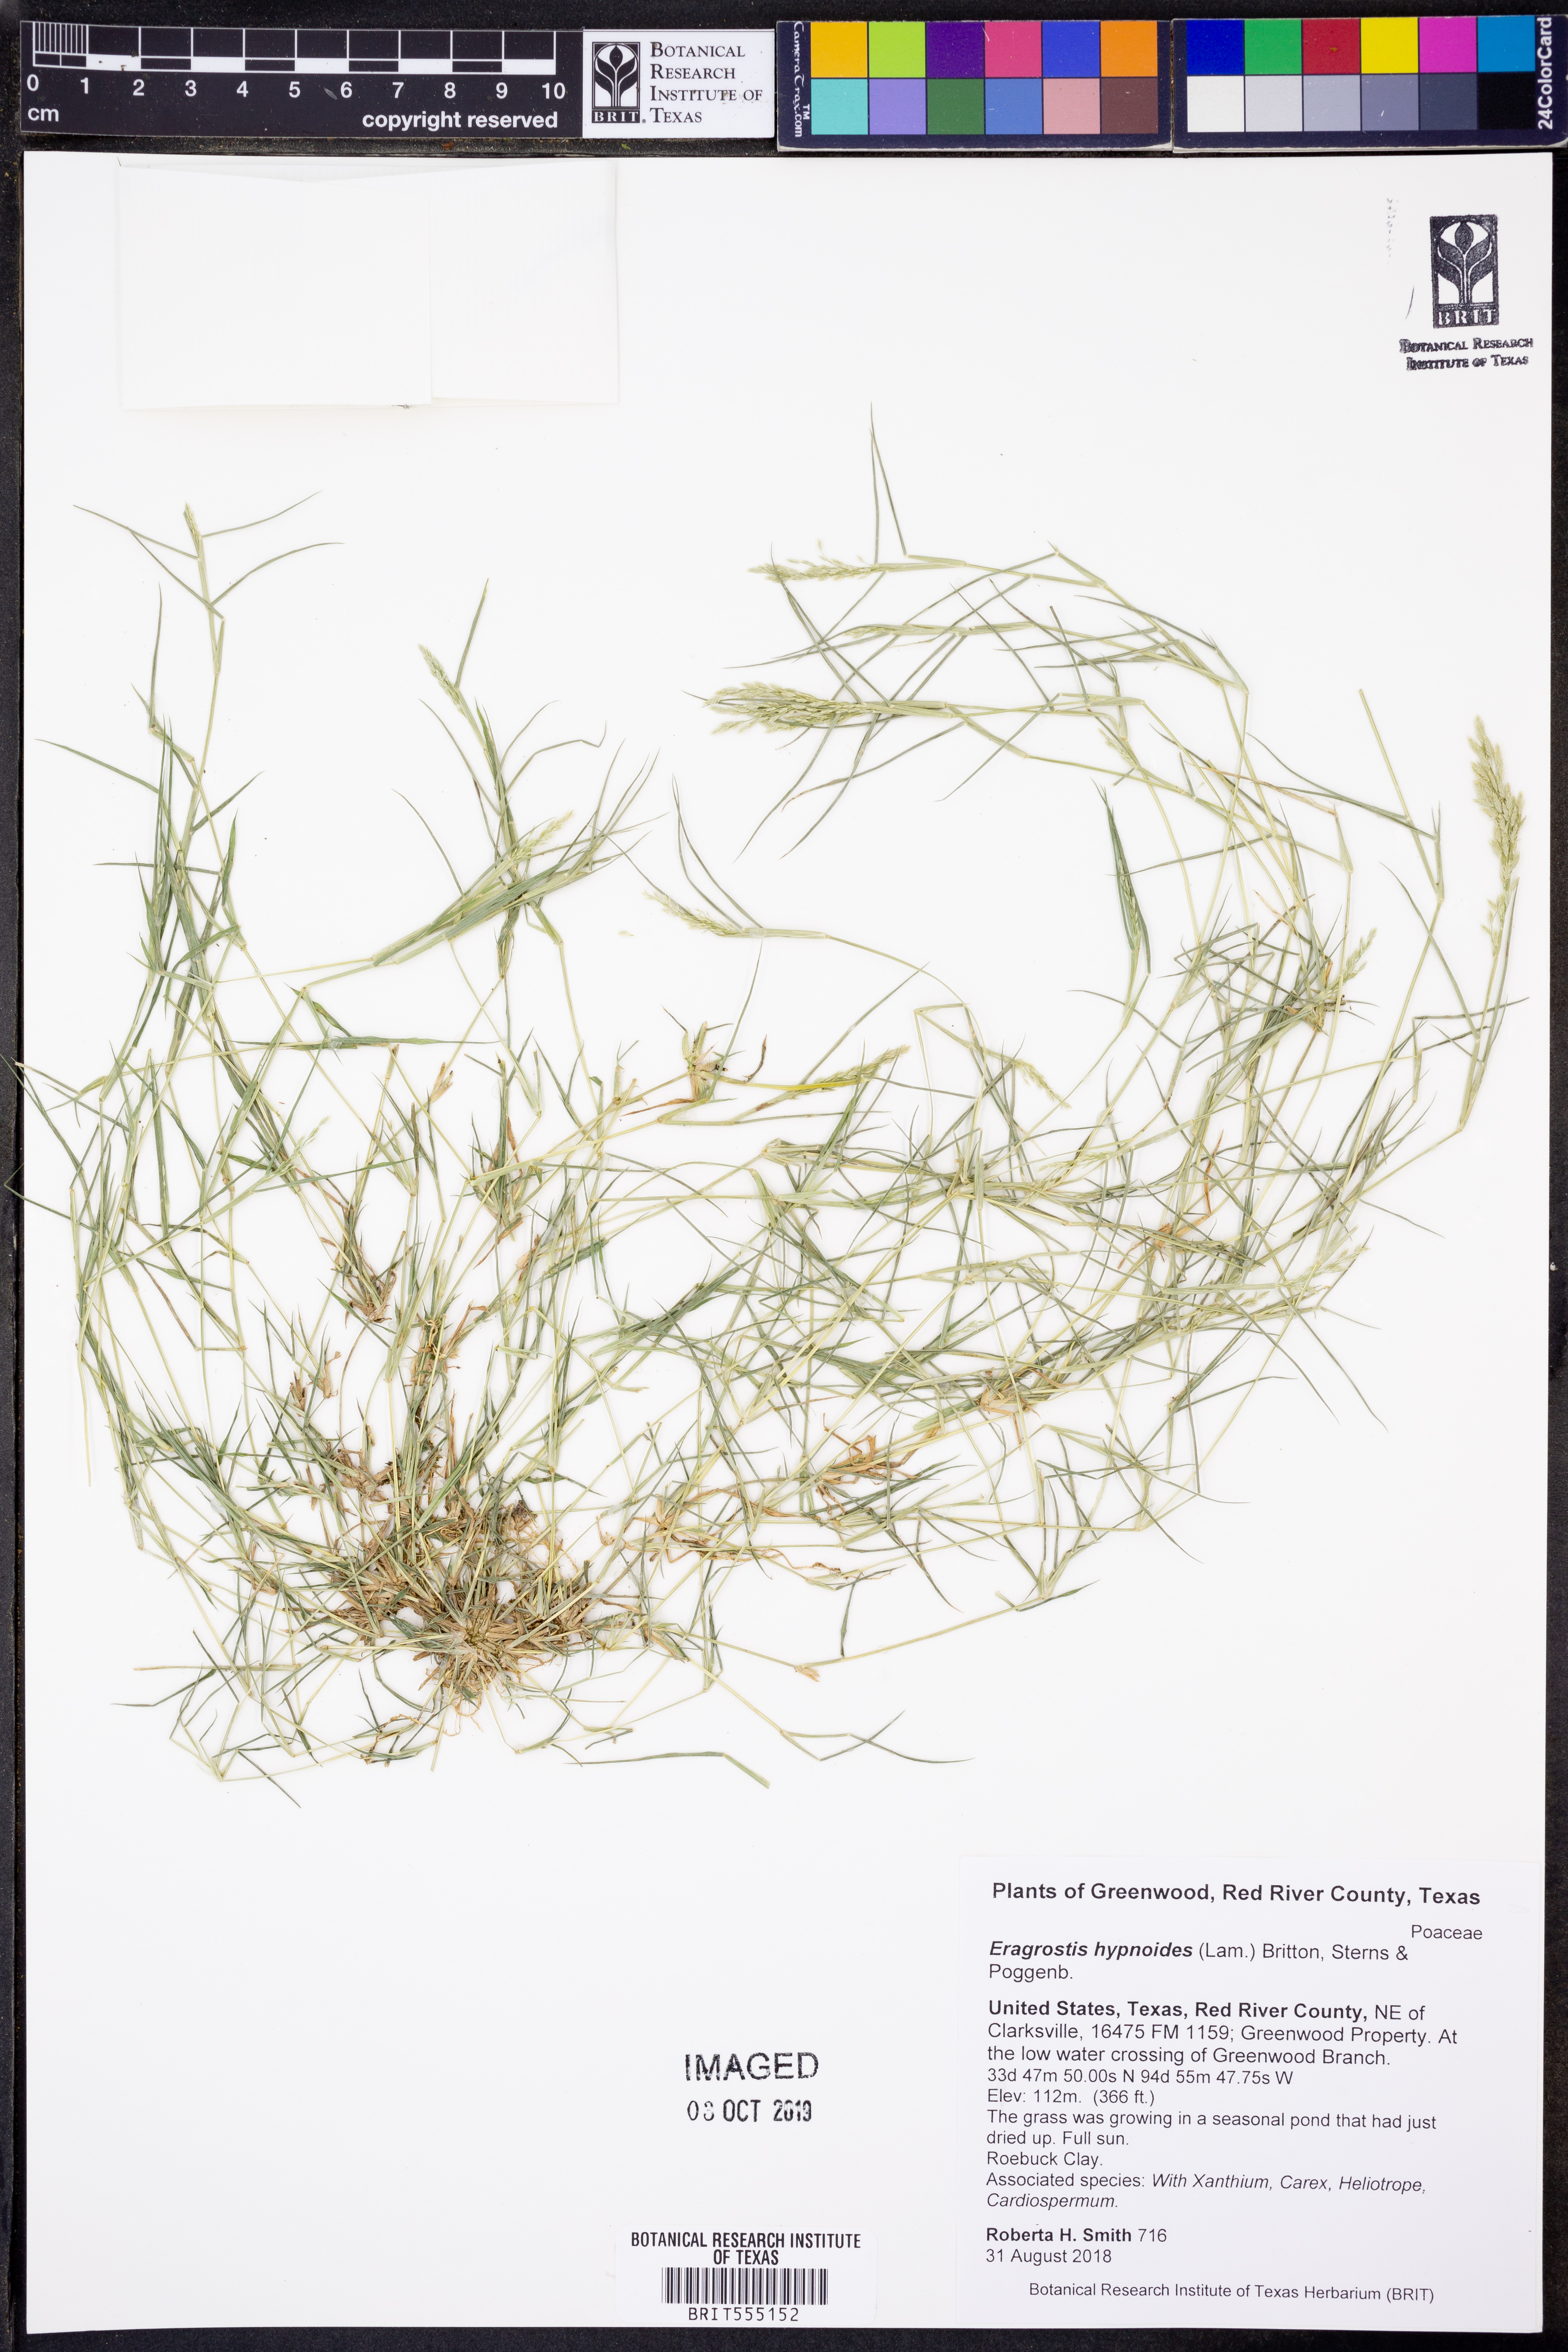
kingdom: Plantae
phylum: Tracheophyta
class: Liliopsida
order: Poales
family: Poaceae
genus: Eragrostis
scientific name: Eragrostis hypnoides
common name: Creeping love grass
